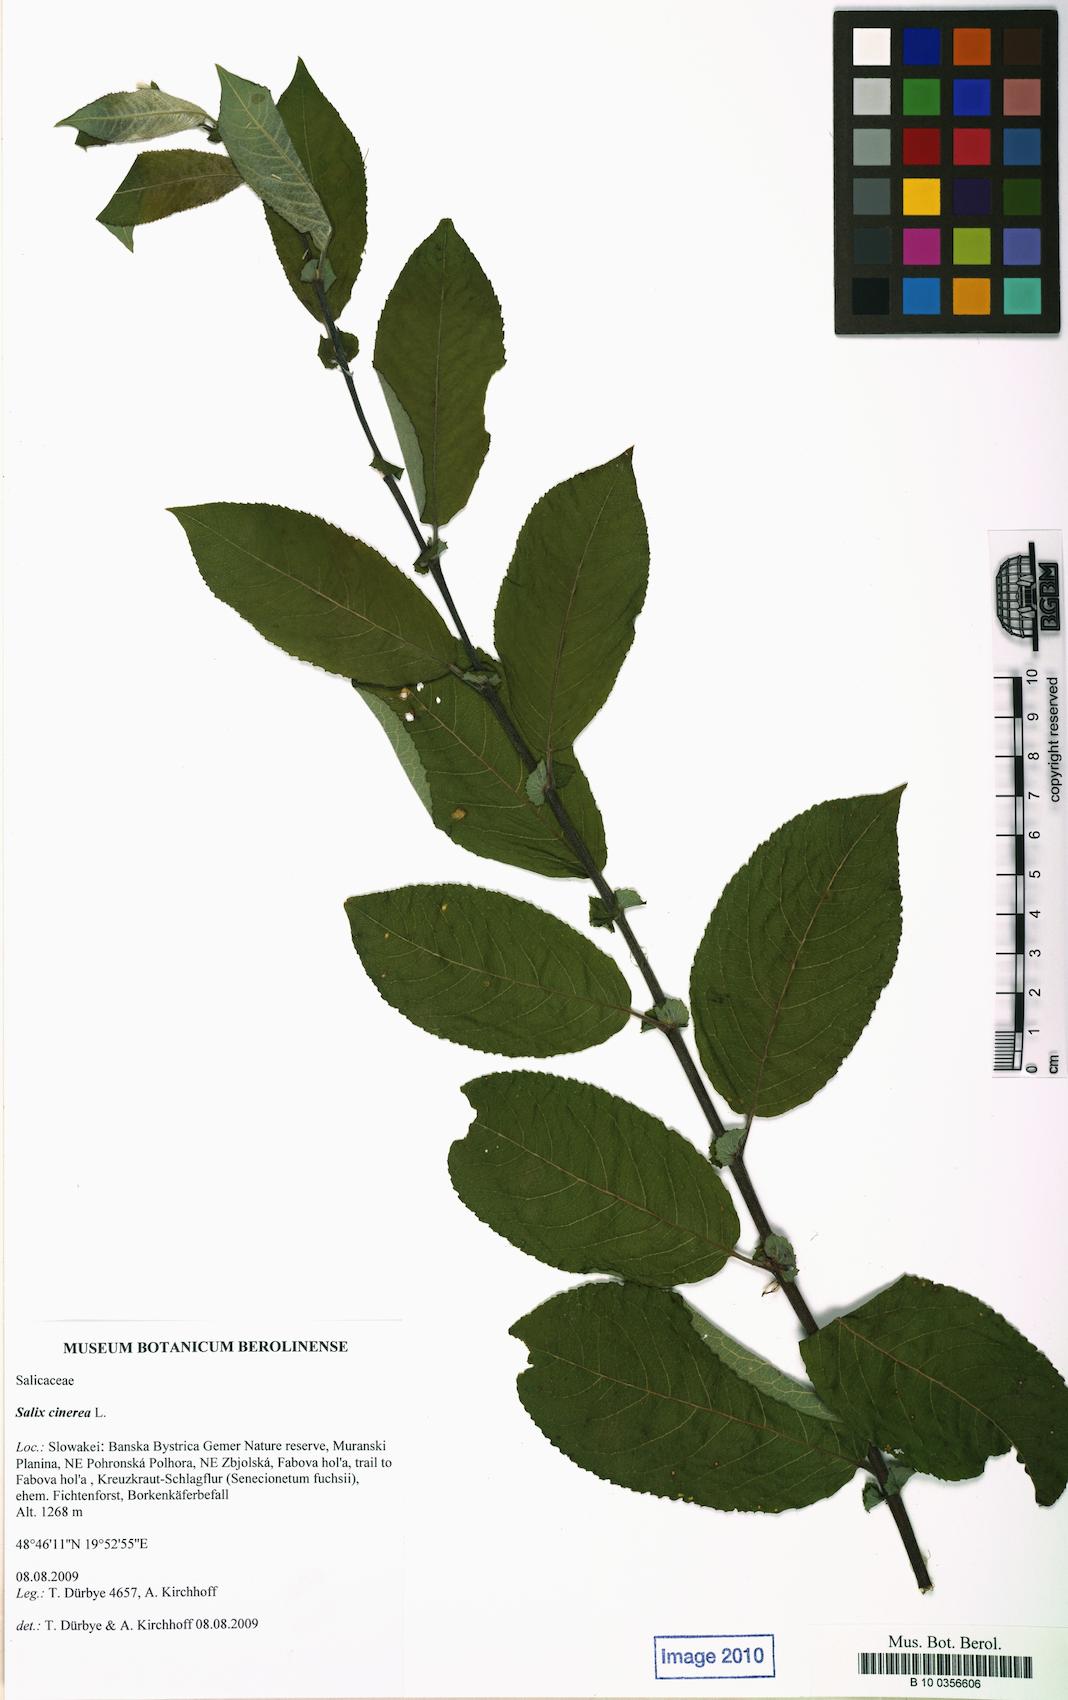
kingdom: Plantae
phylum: Tracheophyta
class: Magnoliopsida
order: Malpighiales
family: Salicaceae
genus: Salix
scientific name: Salix cinerea
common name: Common sallow
